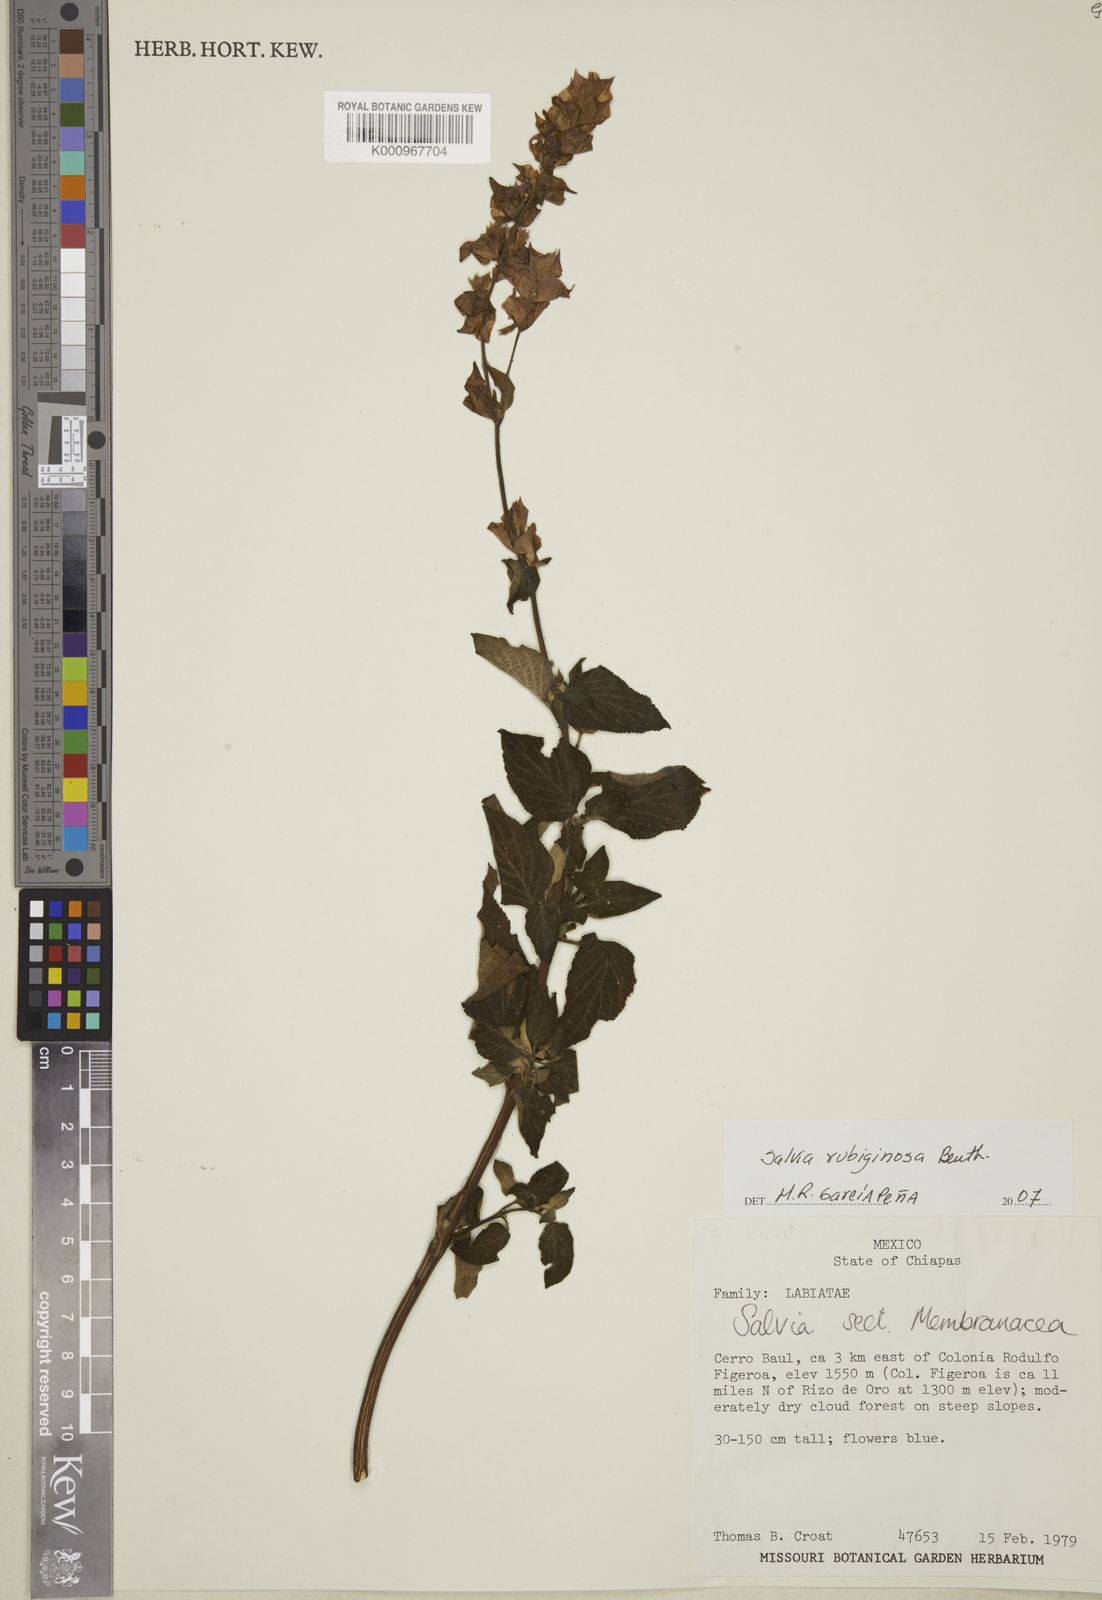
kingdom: Plantae
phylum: Tracheophyta
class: Magnoliopsida
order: Lamiales
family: Lamiaceae
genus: Salvia
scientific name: Salvia mocinoi
